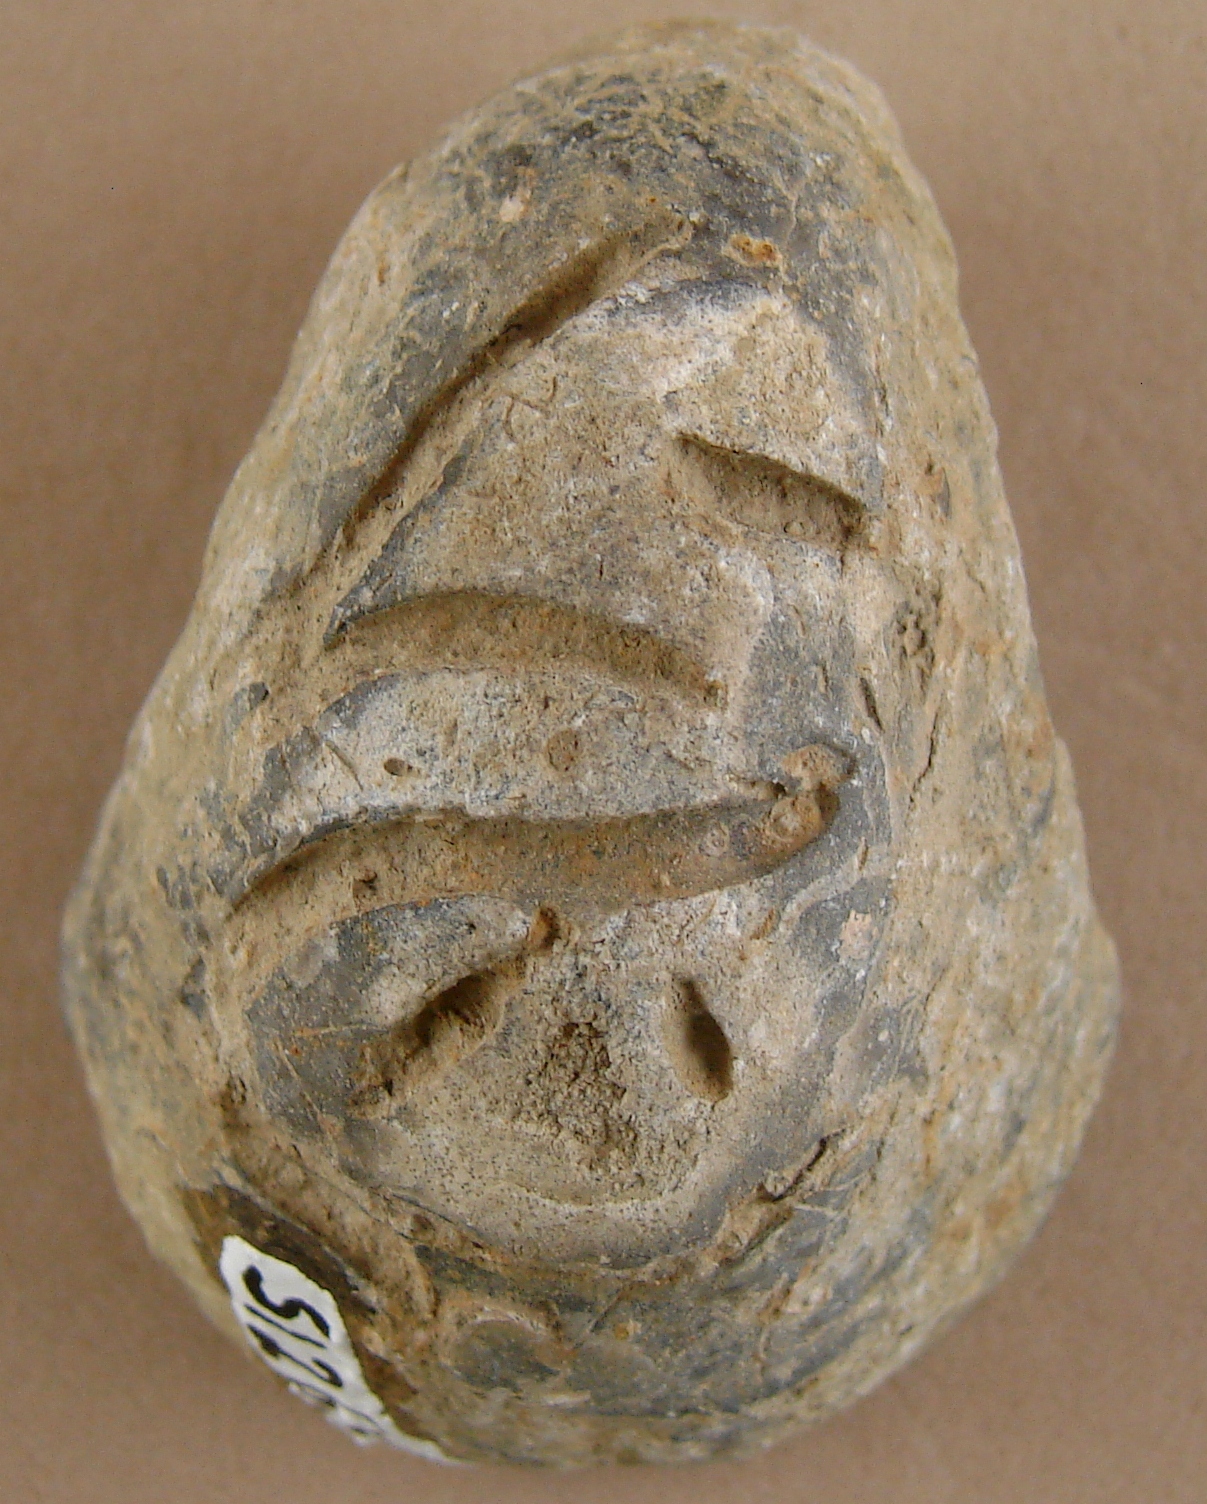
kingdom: Animalia
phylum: Mollusca
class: Bivalvia
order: Ostreida
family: Gryphaeidae
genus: Gryphaea
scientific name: Gryphaea arcuata
